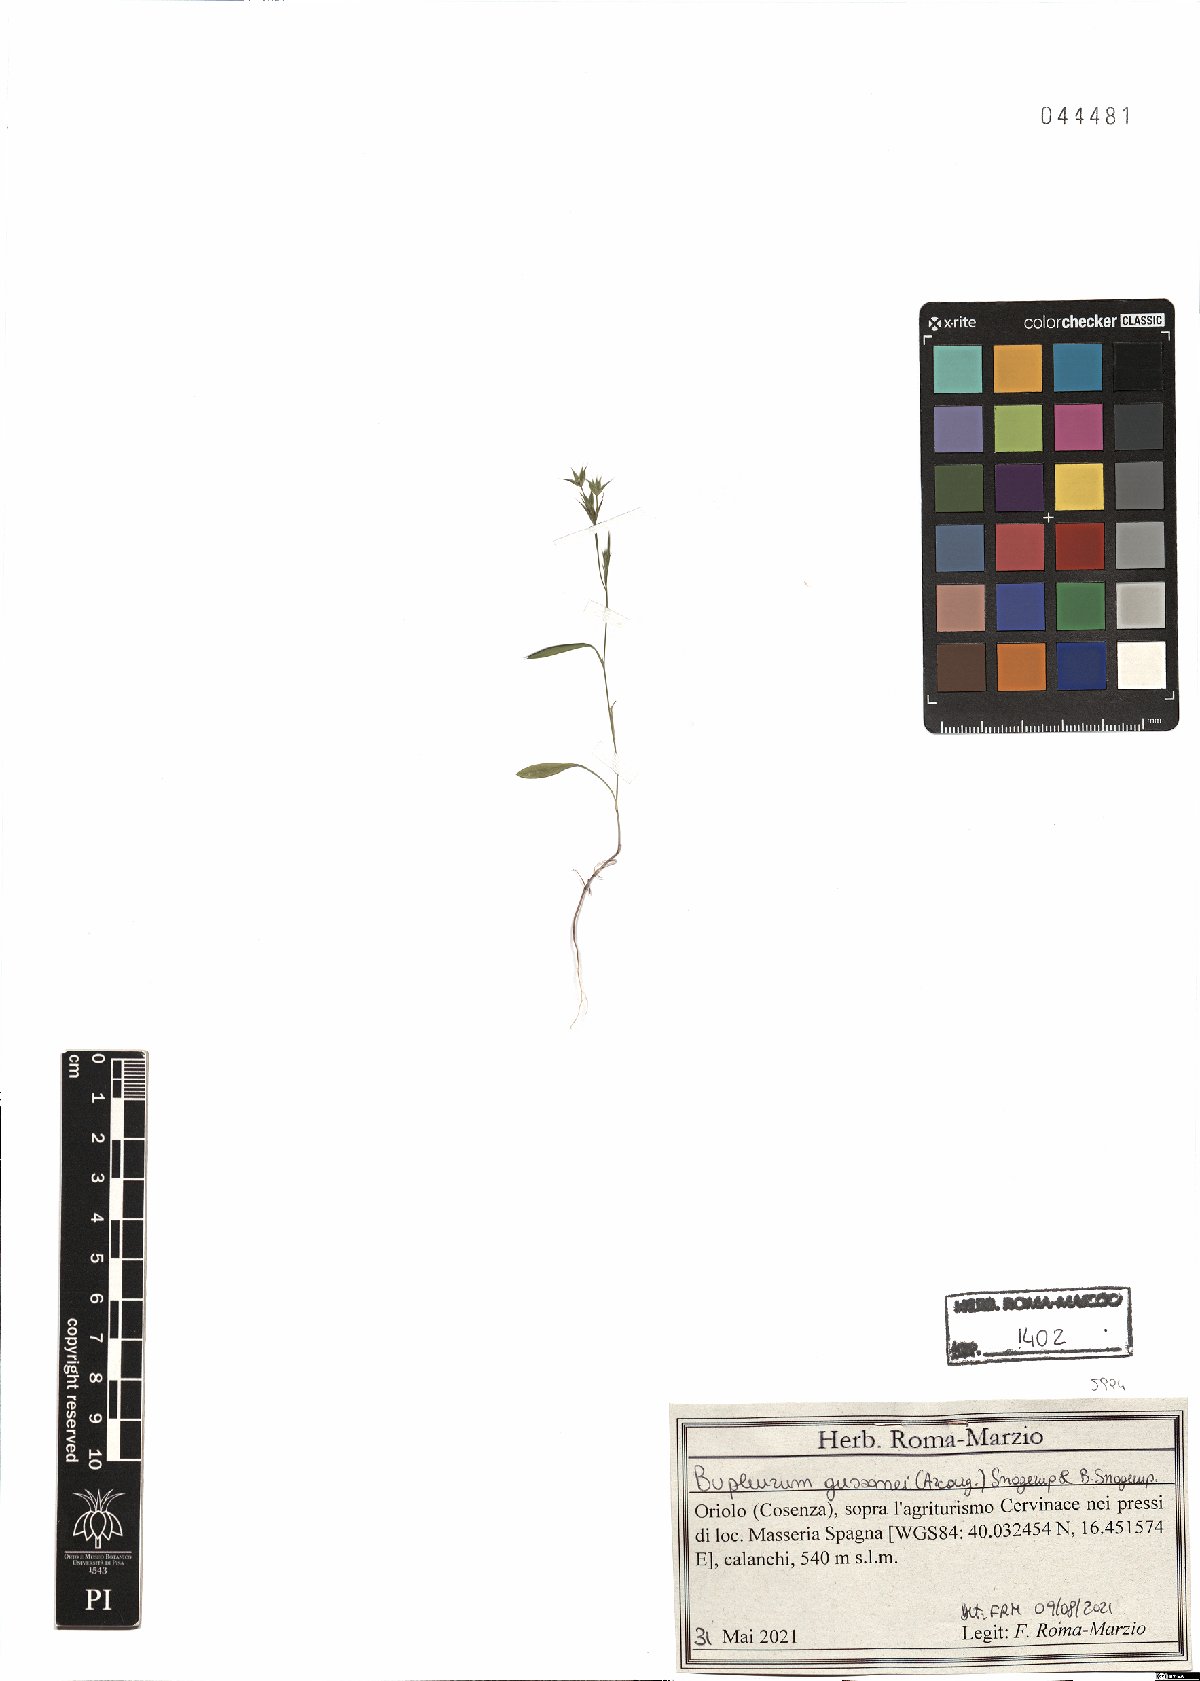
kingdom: Plantae
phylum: Tracheophyta
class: Magnoliopsida
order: Apiales
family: Apiaceae
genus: Bupleurum
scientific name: Bupleurum gussonei
